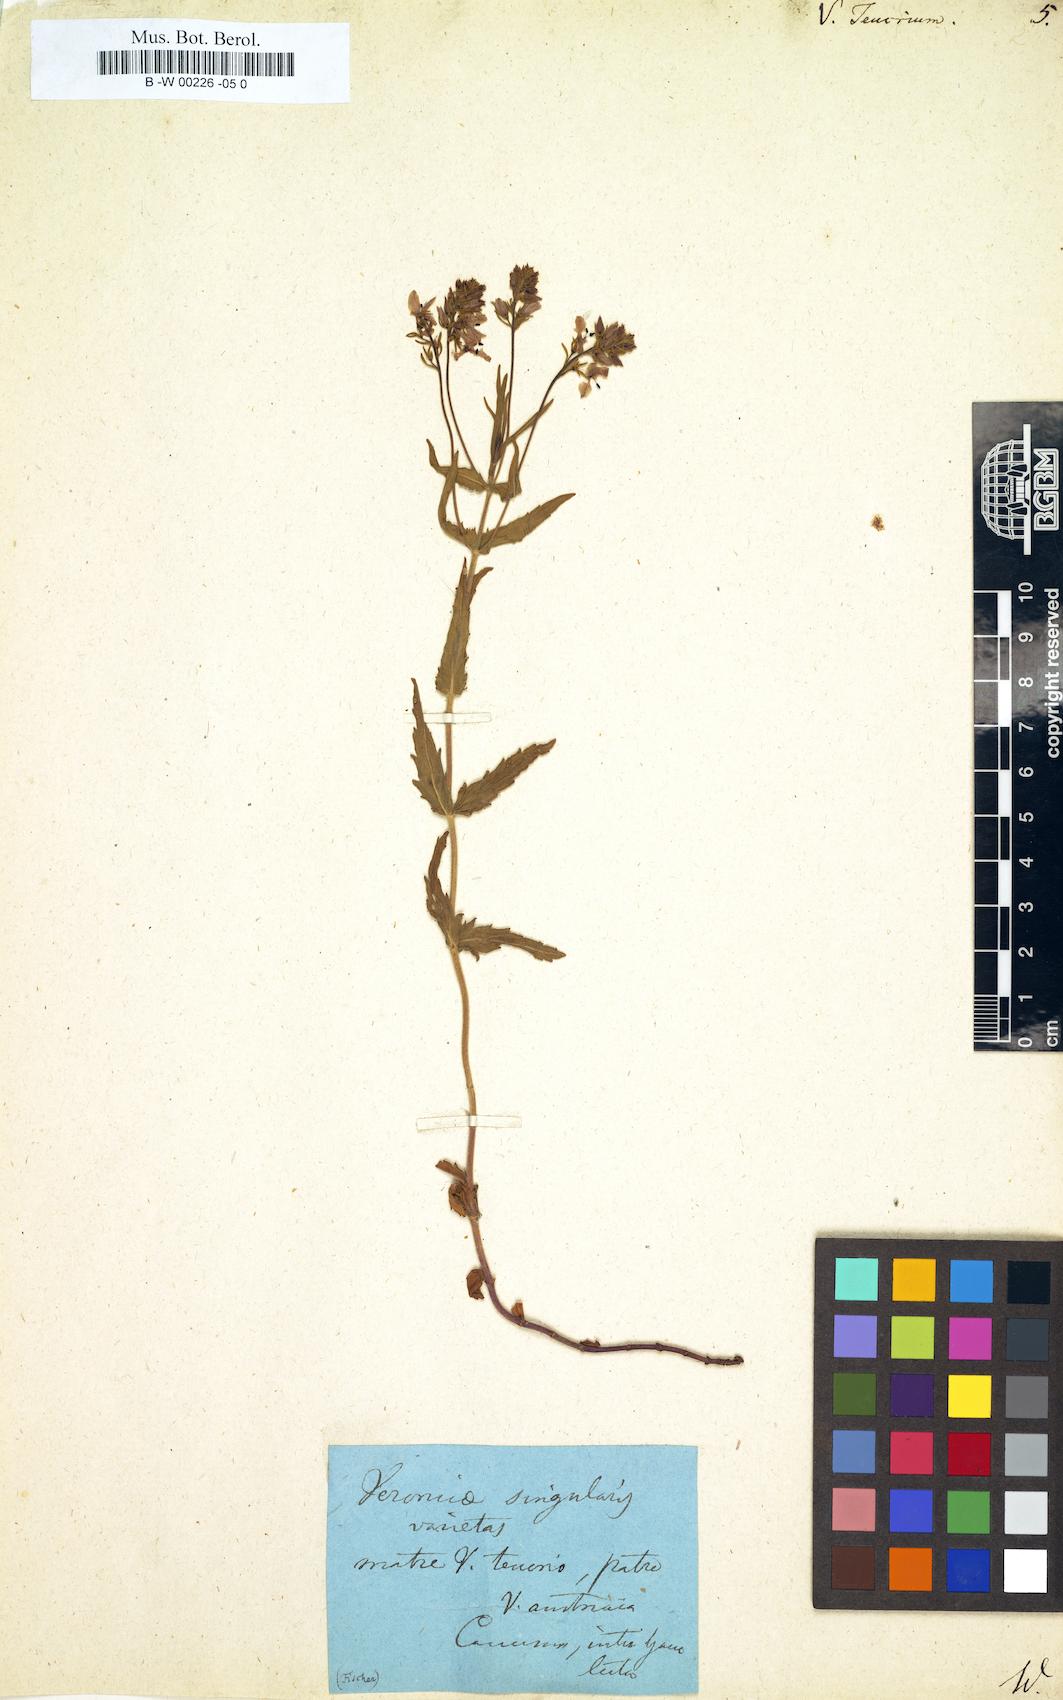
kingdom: Plantae
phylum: Tracheophyta
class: Magnoliopsida
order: Lamiales
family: Plantaginaceae
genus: Veronica
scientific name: Veronica teucrium
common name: Large speedwell
